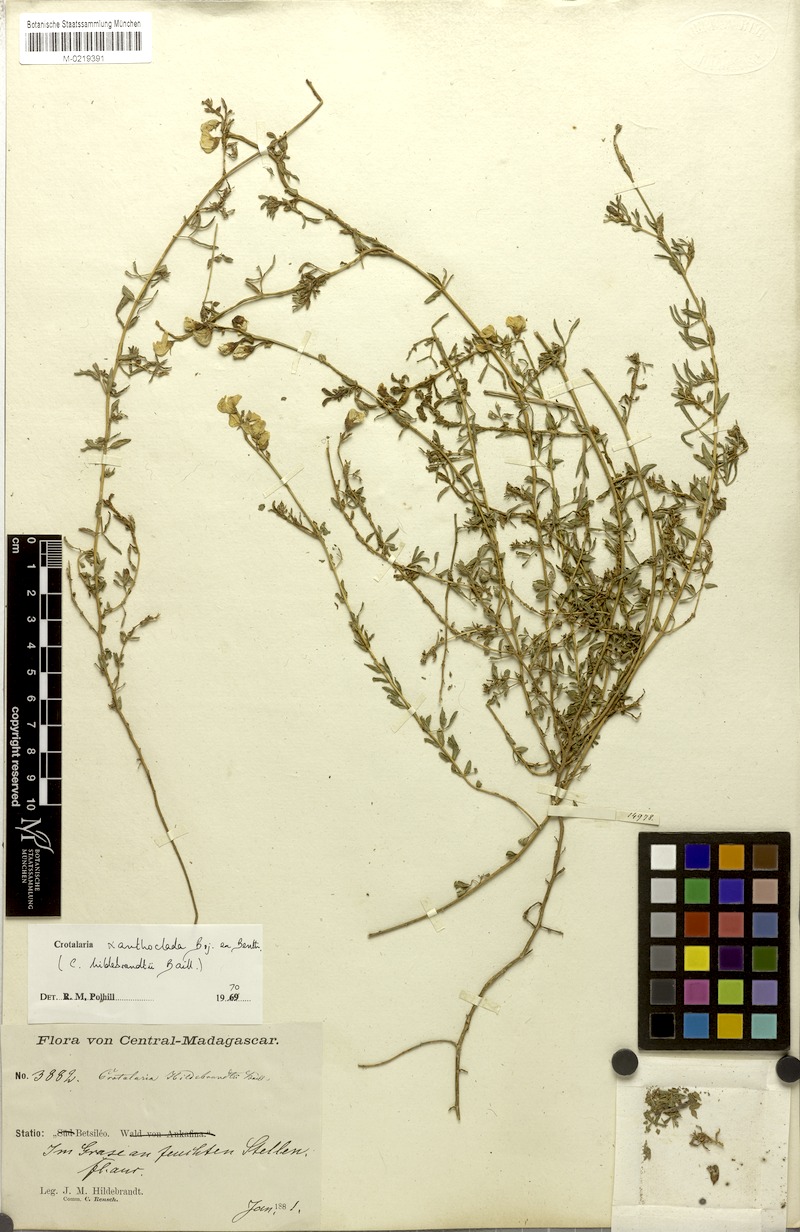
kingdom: Plantae
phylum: Tracheophyta
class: Magnoliopsida
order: Fabales
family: Fabaceae
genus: Crotalaria
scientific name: Crotalaria xanthoclada
